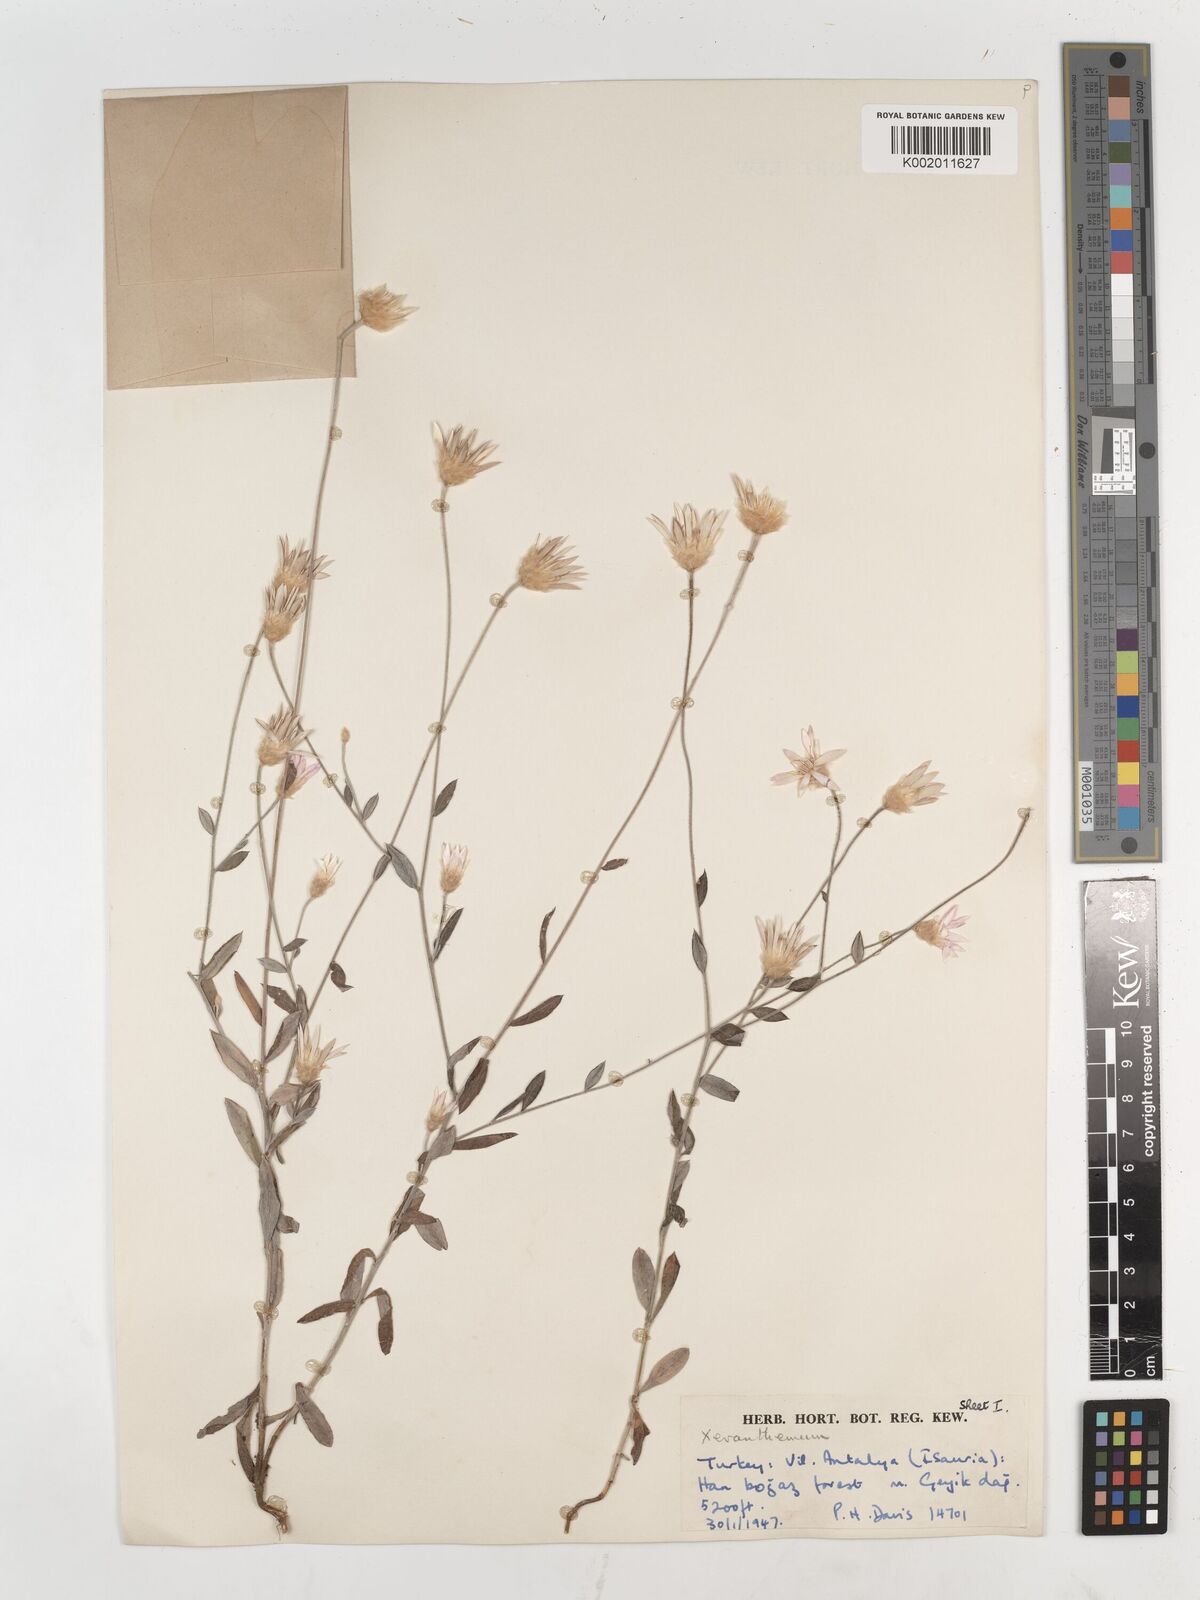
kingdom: Plantae
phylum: Tracheophyta
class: Magnoliopsida
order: Asterales
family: Asteraceae
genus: Xeranthemum
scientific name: Xeranthemum annuum
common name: Immortelle
